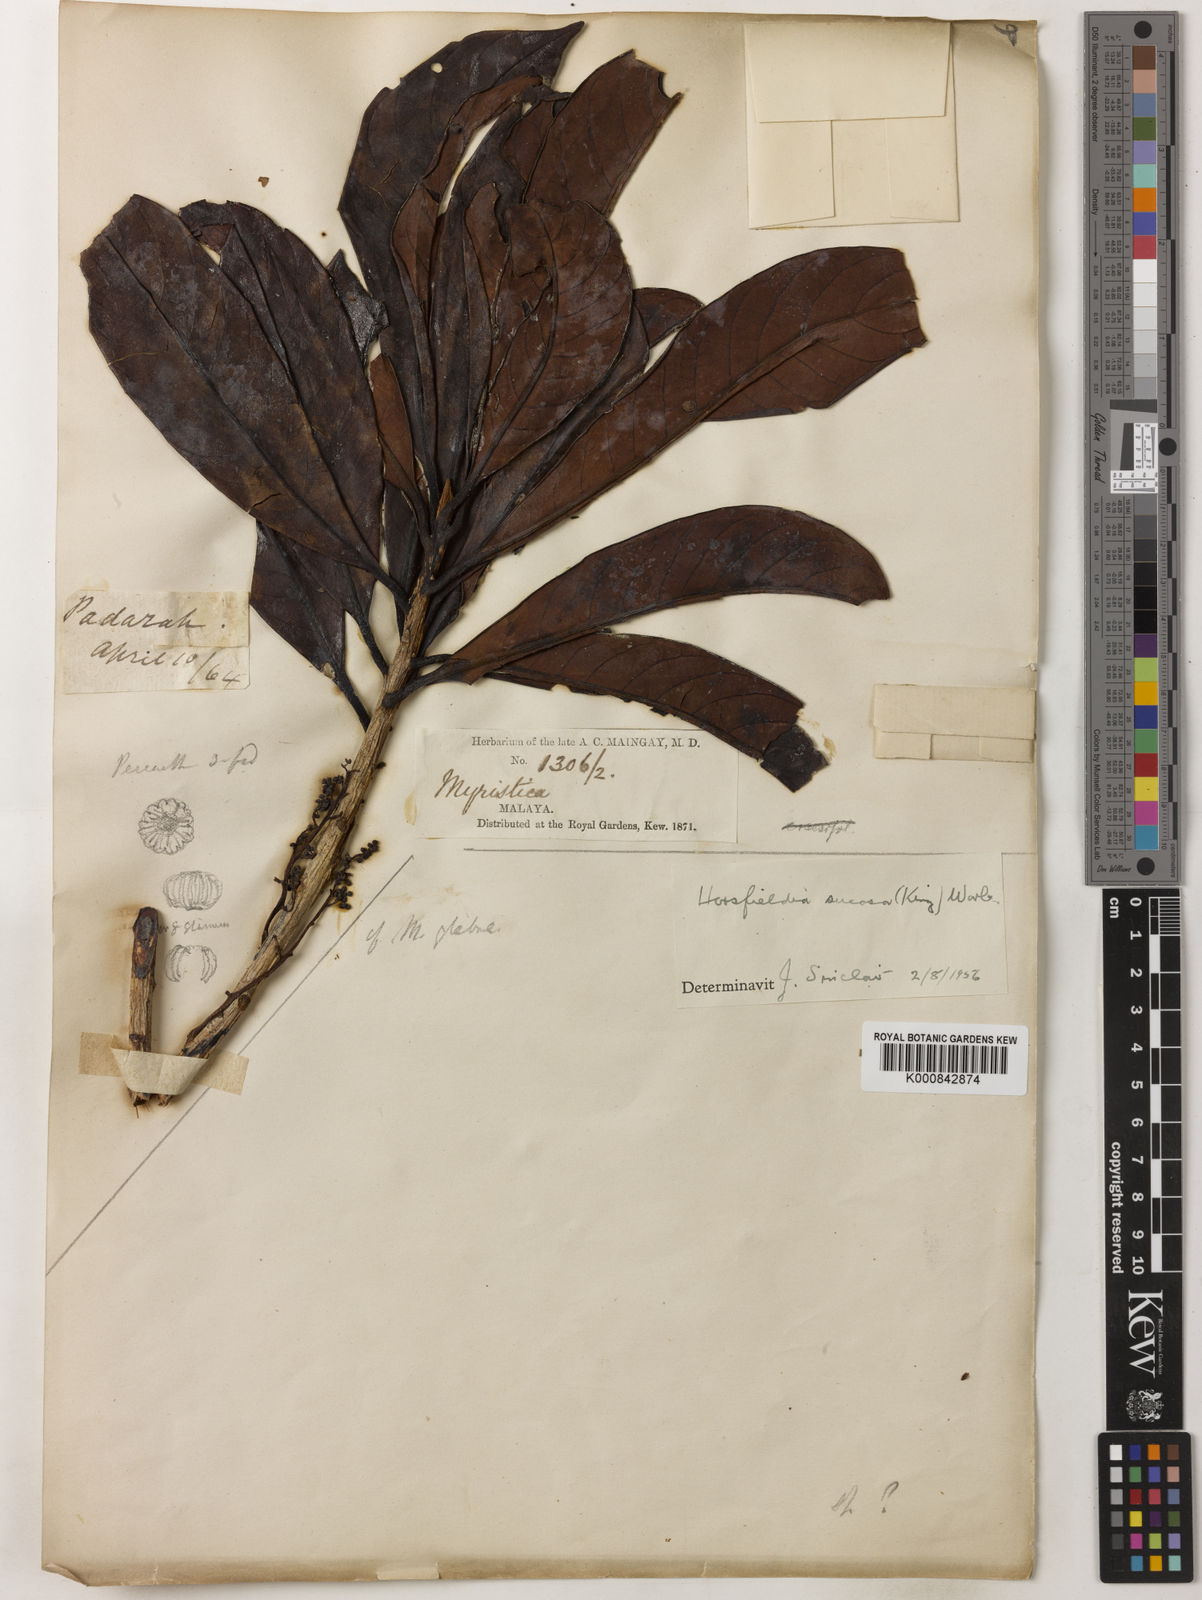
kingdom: Plantae
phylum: Tracheophyta
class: Magnoliopsida
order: Magnoliales
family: Myristicaceae
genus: Horsfieldia
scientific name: Horsfieldia sucosa
